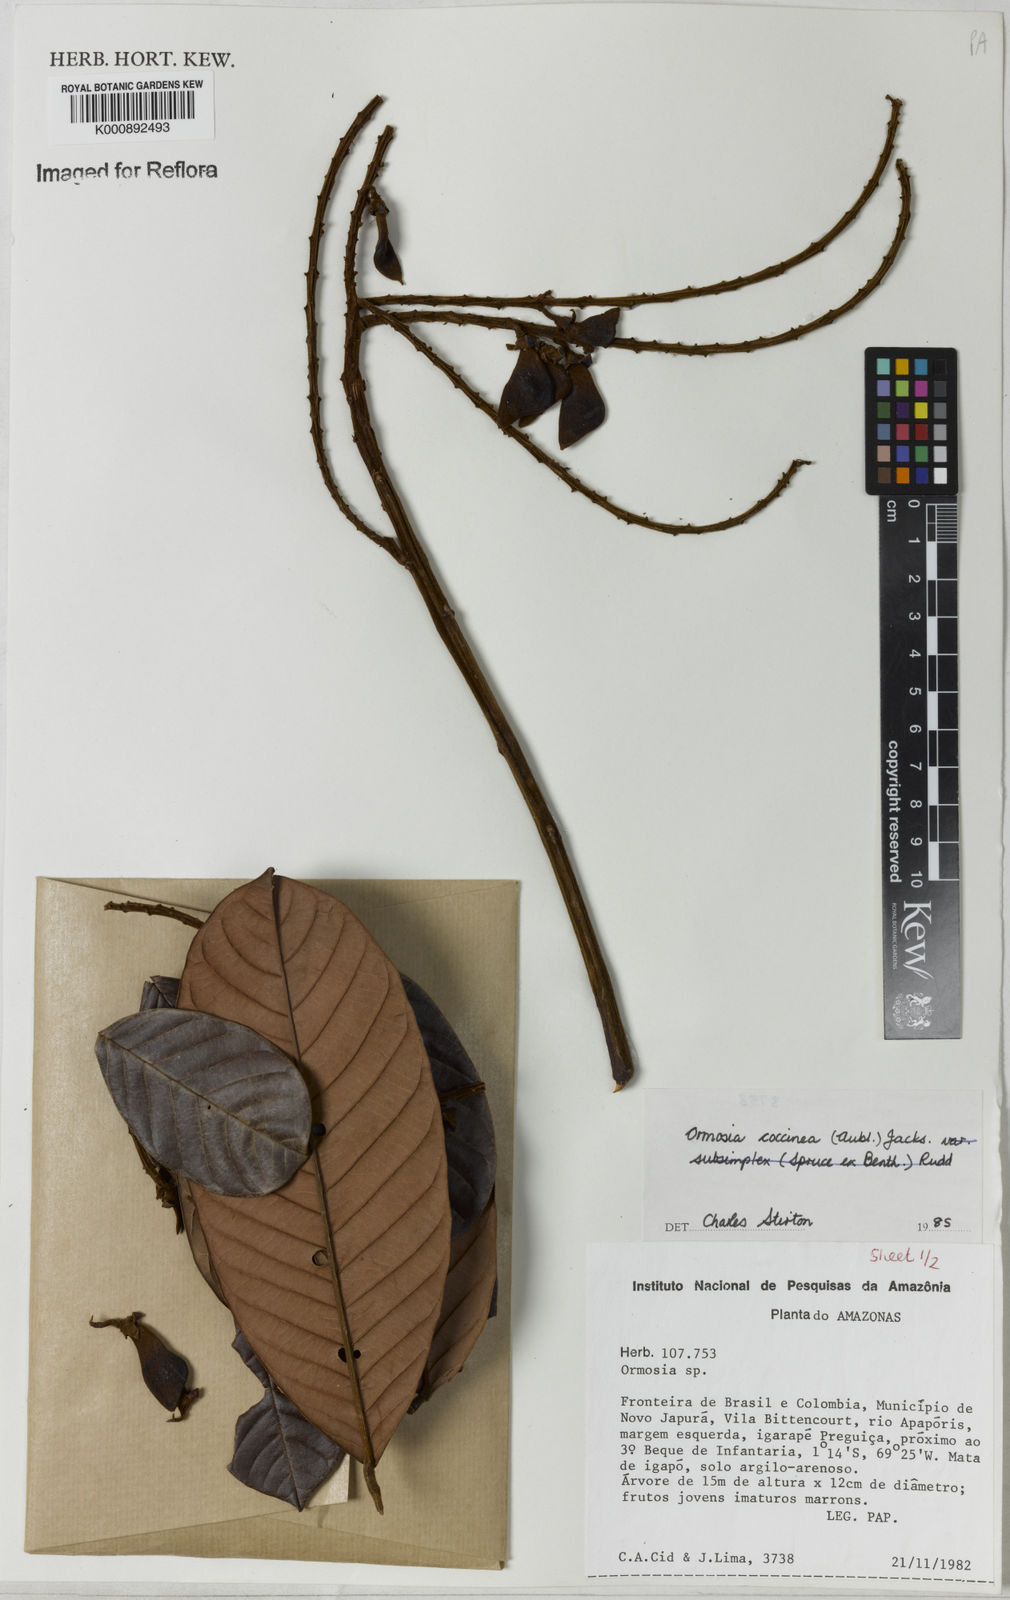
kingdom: Plantae
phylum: Tracheophyta
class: Magnoliopsida
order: Fabales
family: Fabaceae
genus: Ormosia
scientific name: Ormosia coccinea
